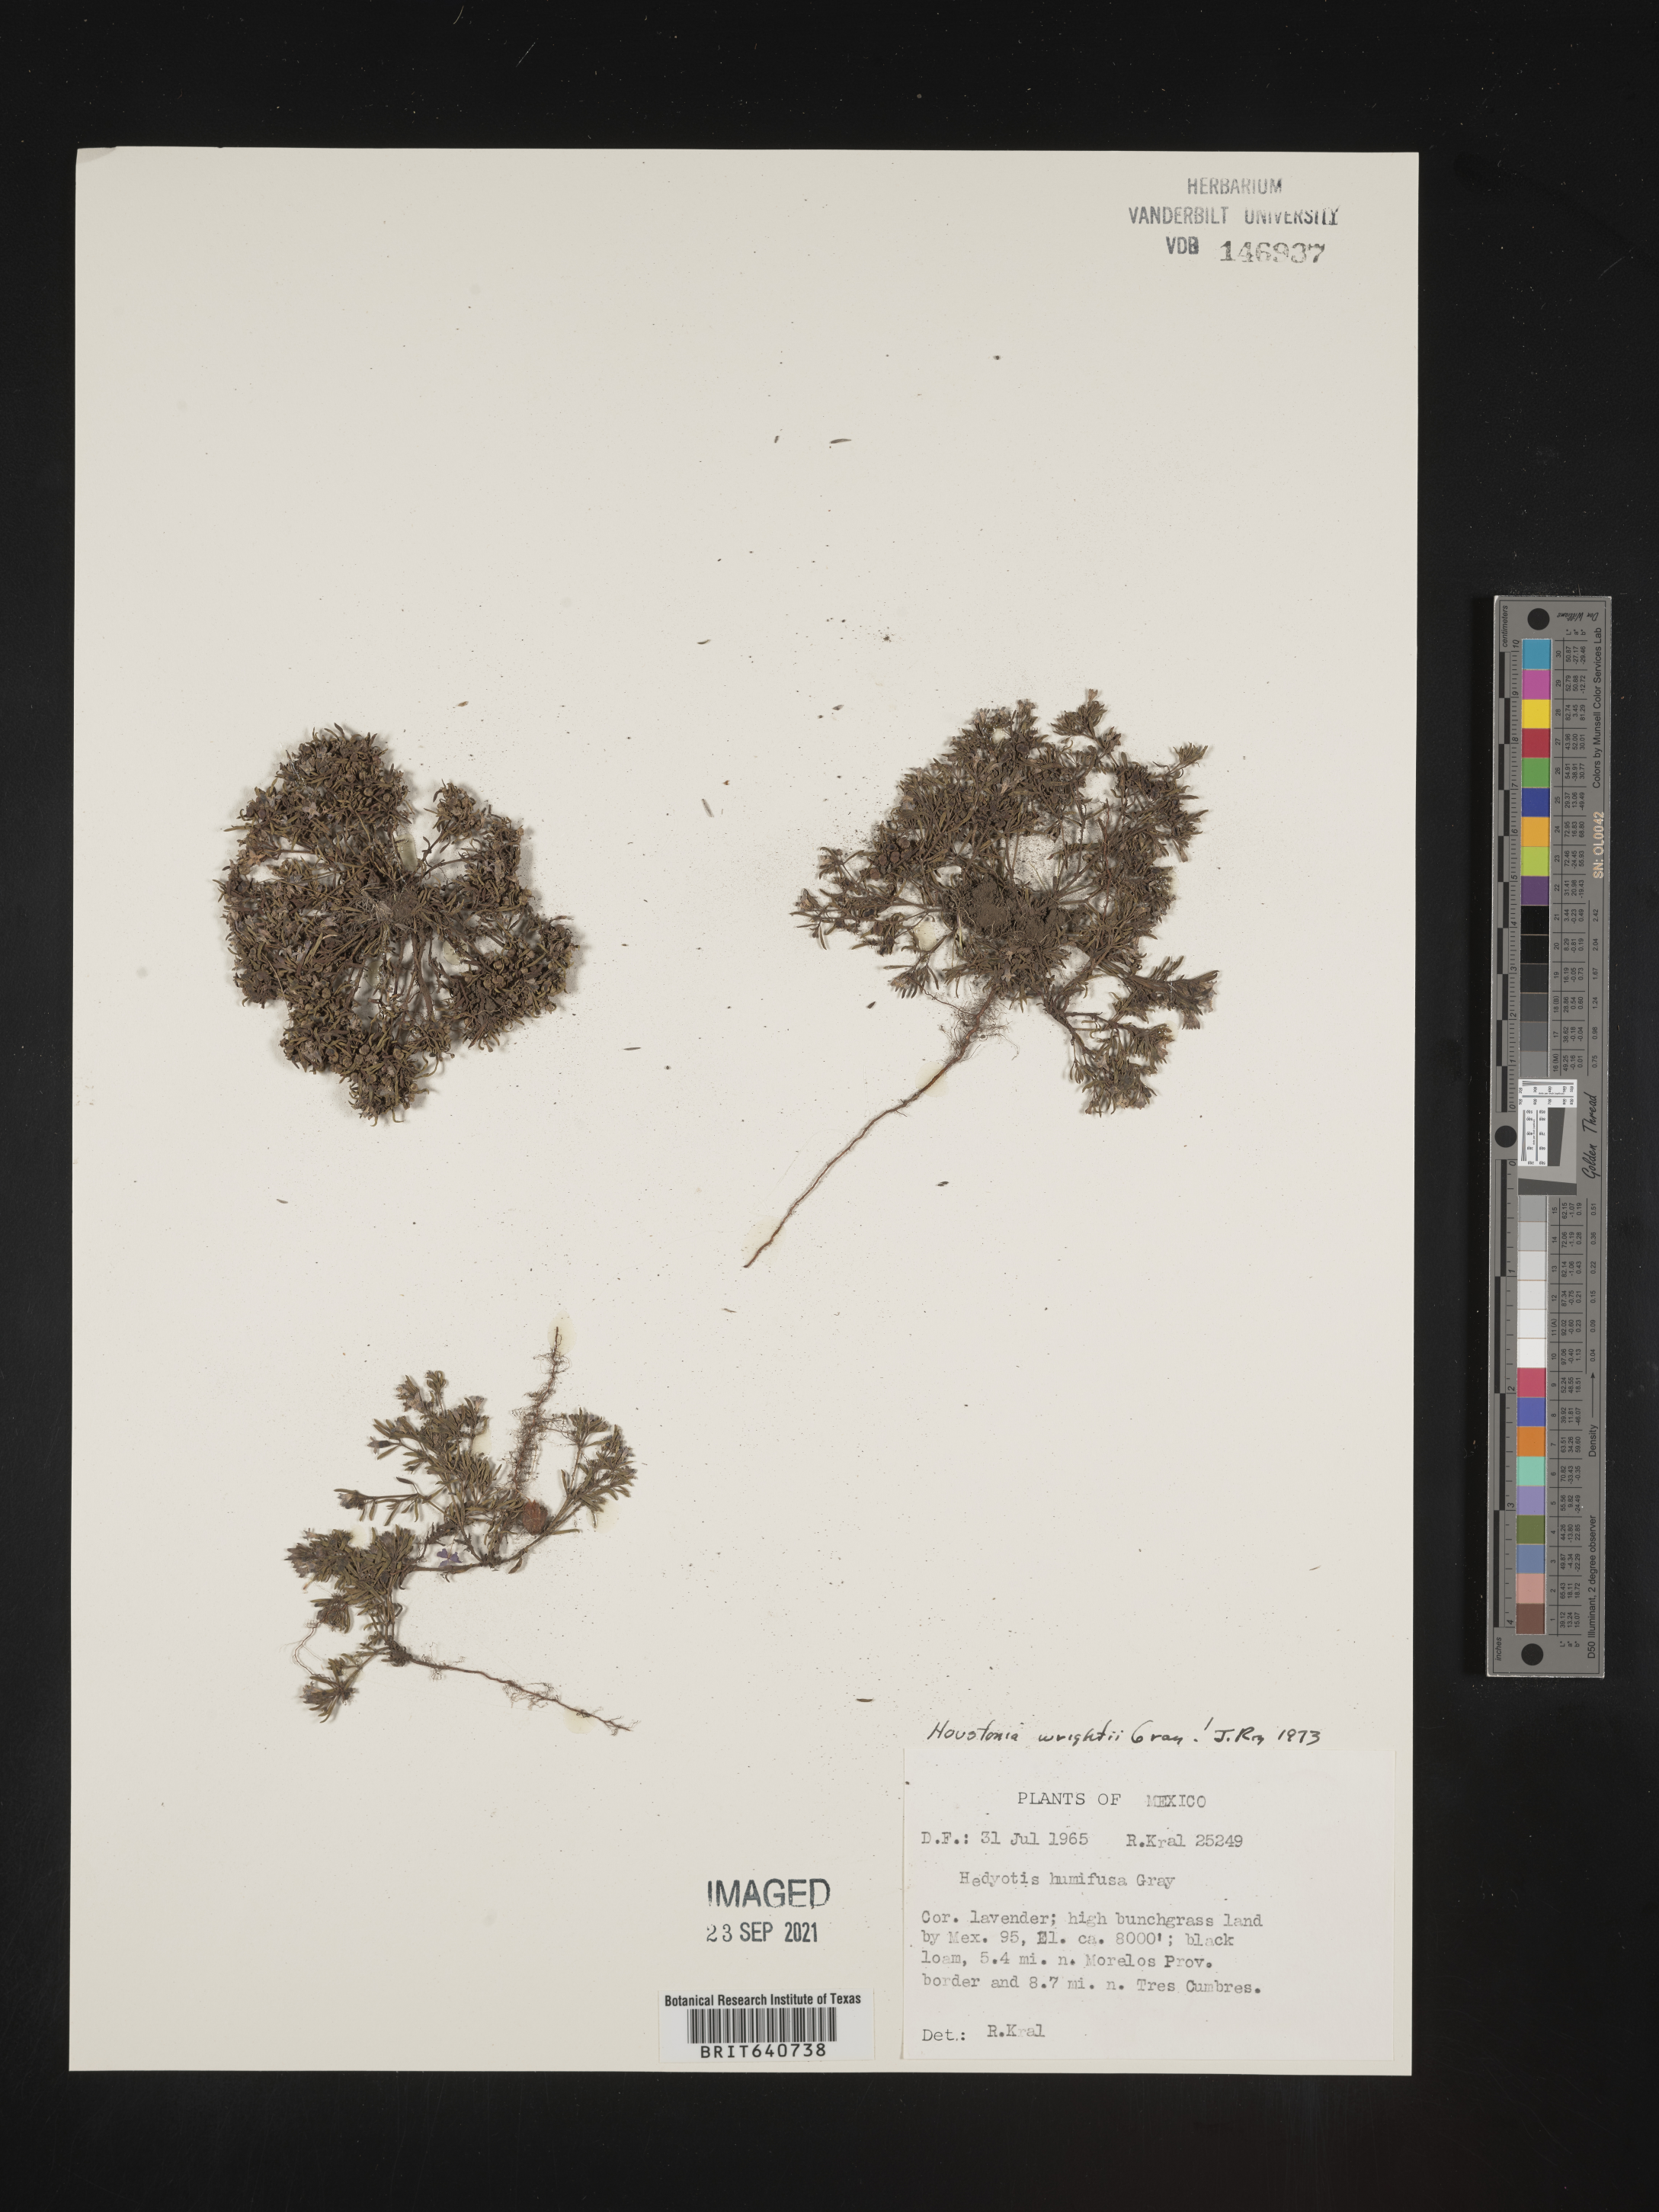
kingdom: Plantae
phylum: Tracheophyta
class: Magnoliopsida
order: Gentianales
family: Rubiaceae
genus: Hedyotis
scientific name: Hedyotis
